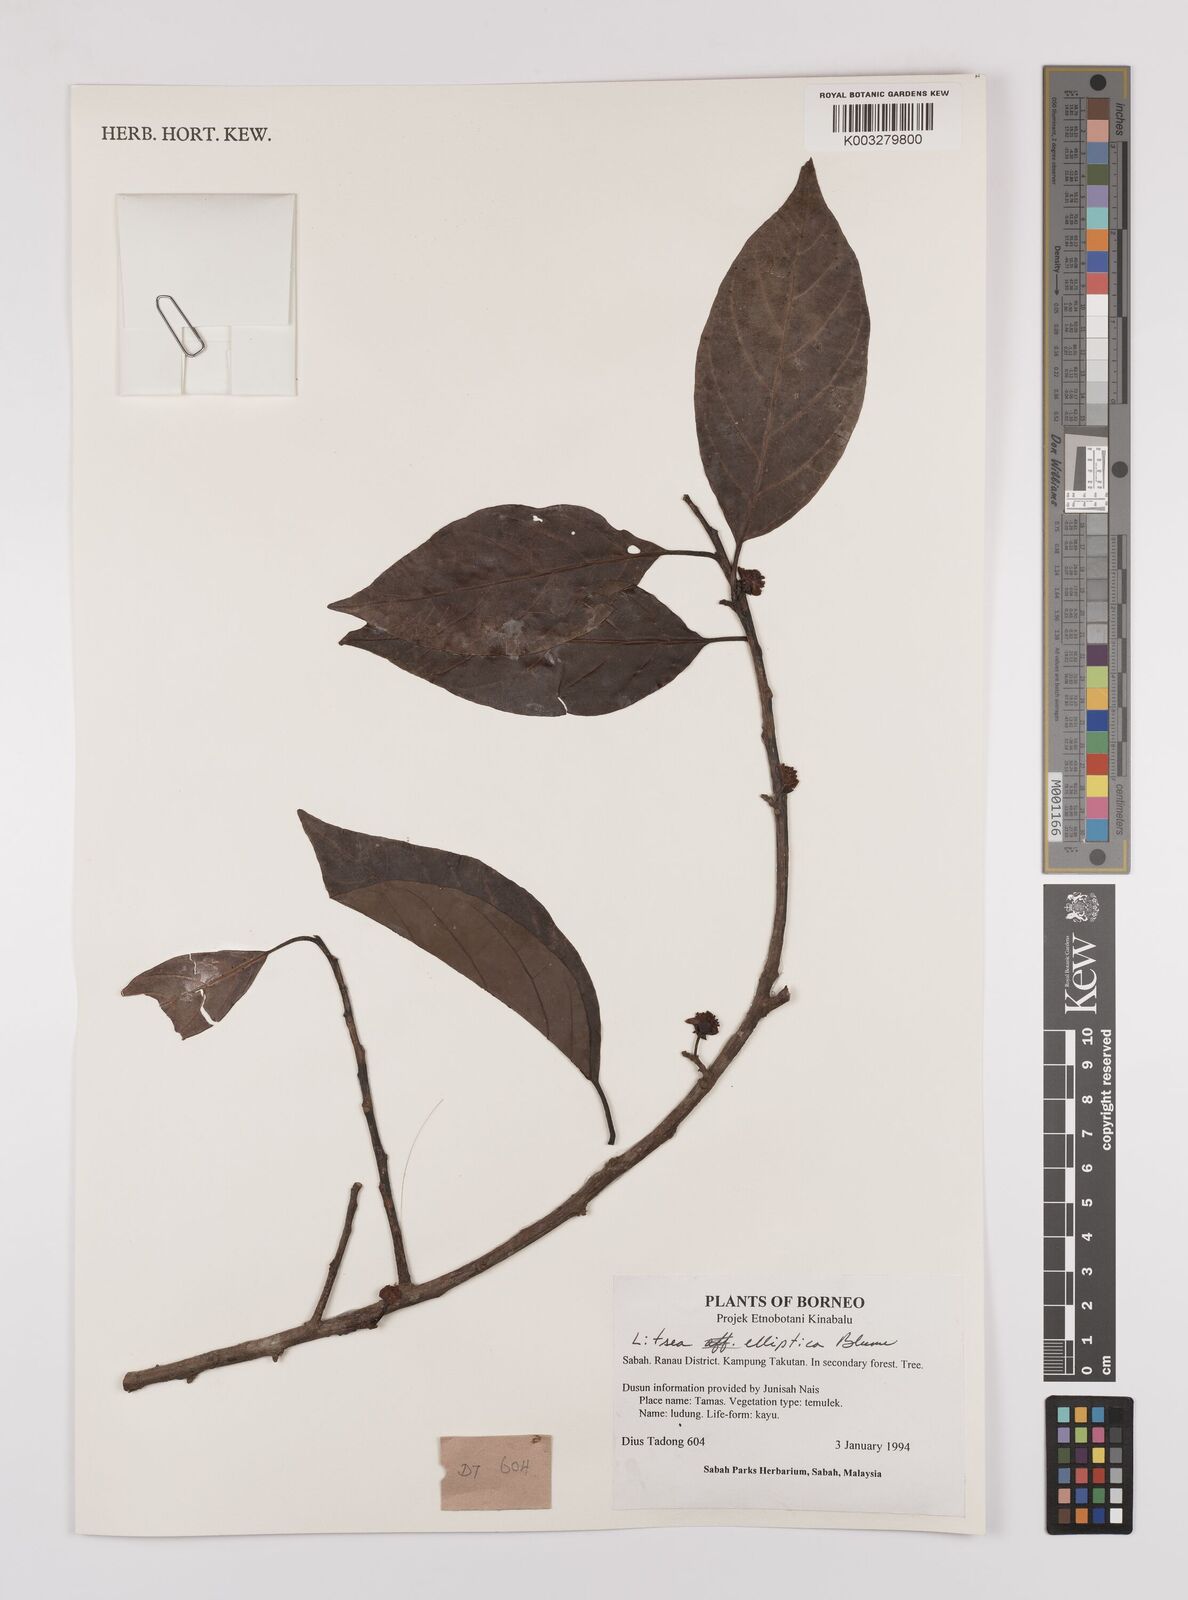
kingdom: Plantae
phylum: Tracheophyta
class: Magnoliopsida
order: Laurales
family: Lauraceae
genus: Litsea
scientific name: Litsea elliptica
